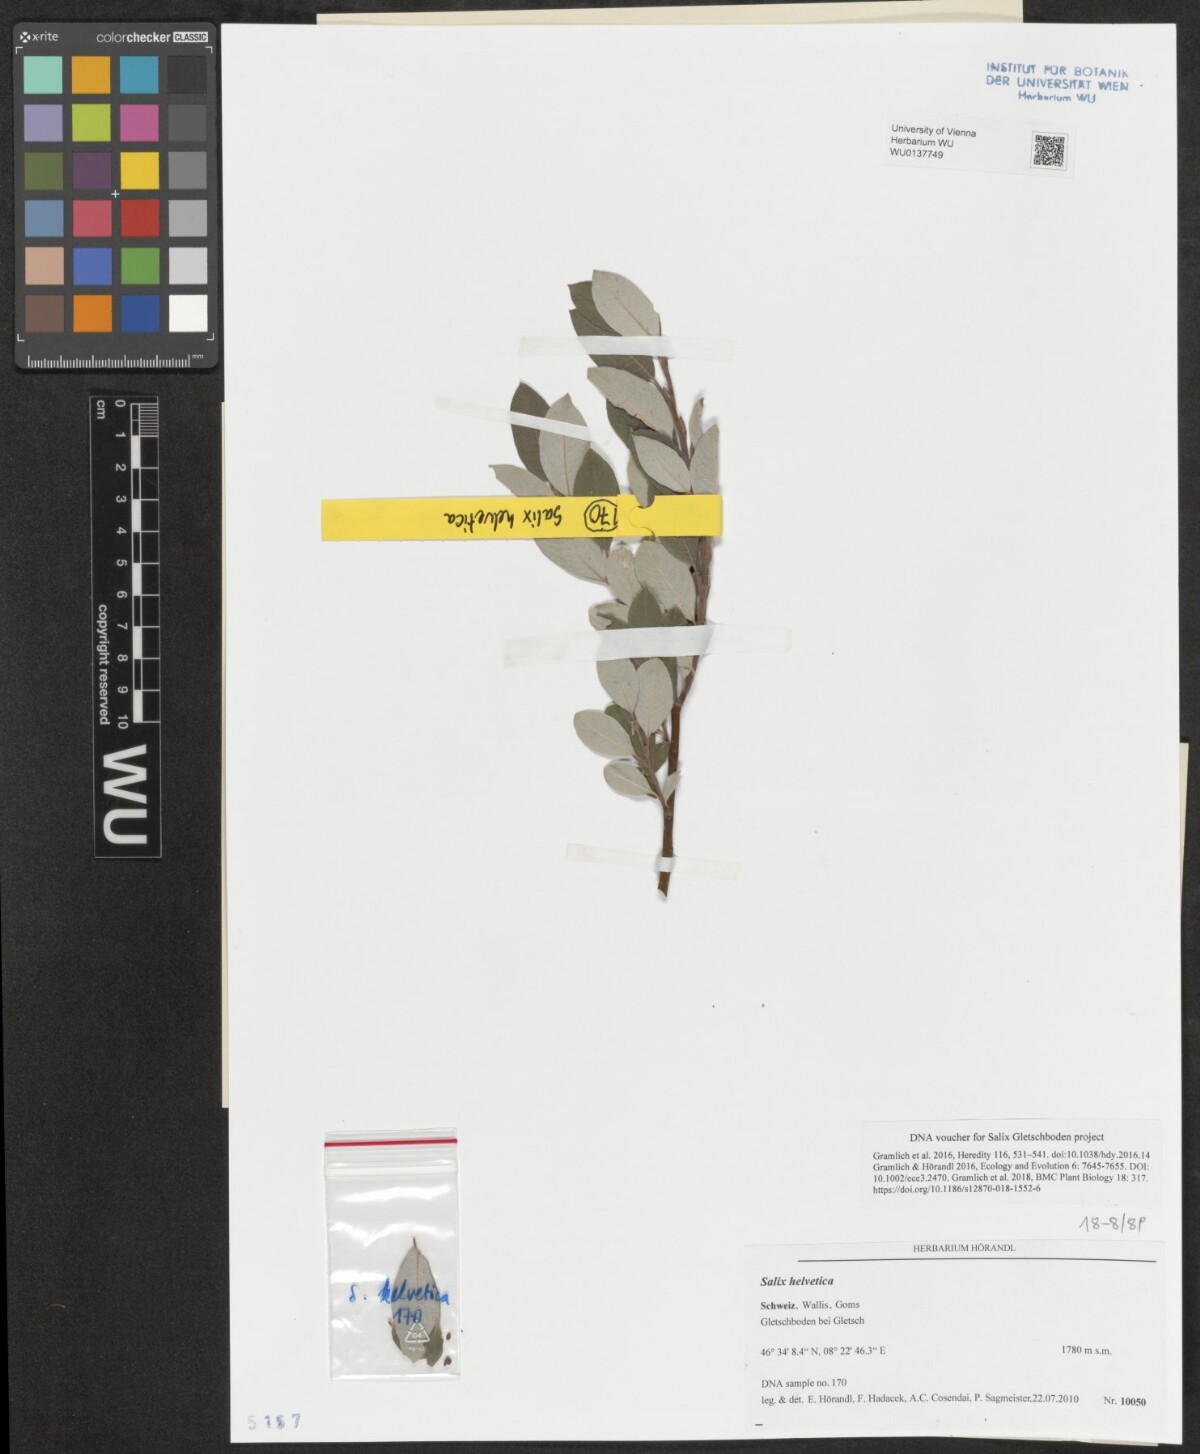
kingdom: Plantae
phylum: Tracheophyta
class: Magnoliopsida
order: Malpighiales
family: Salicaceae
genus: Salix
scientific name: Salix helvetica
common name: Swiss willow
